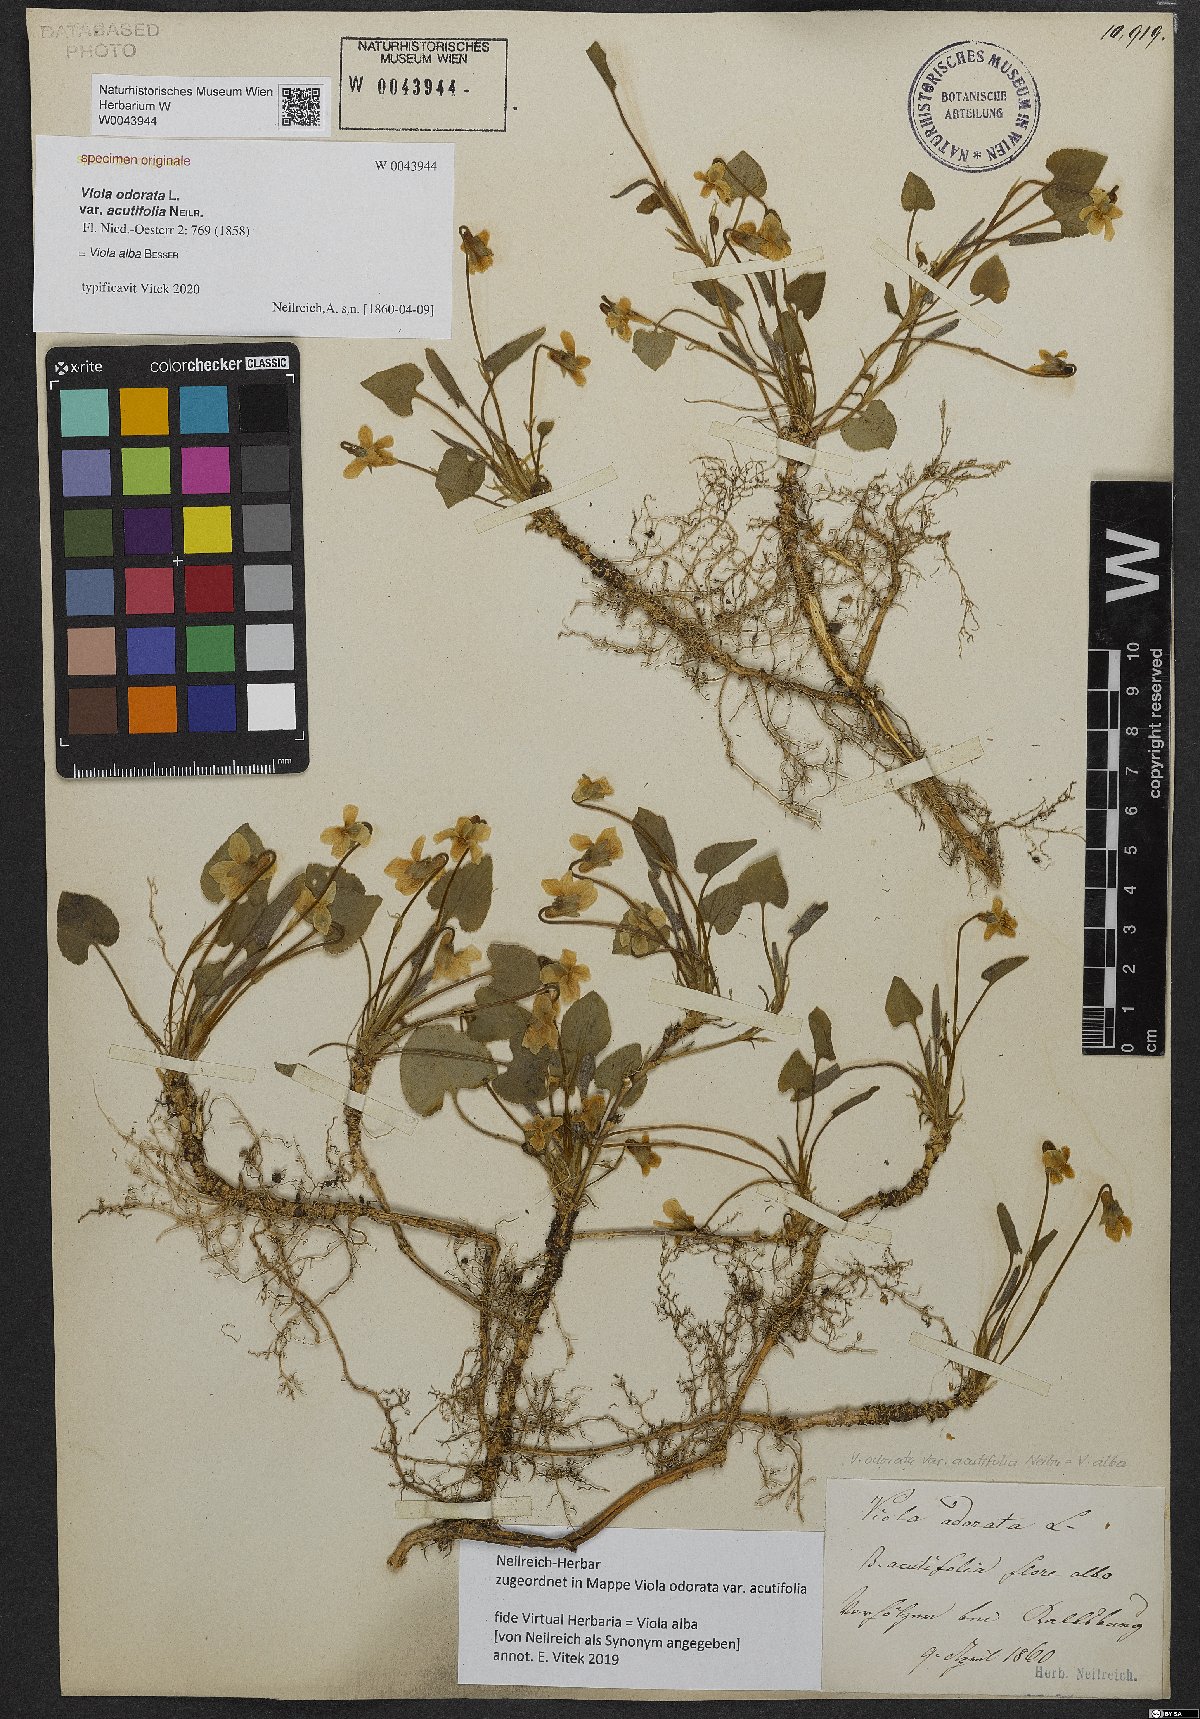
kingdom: Plantae
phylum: Tracheophyta
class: Magnoliopsida
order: Malpighiales
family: Violaceae
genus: Viola
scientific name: Viola odorata
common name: Sweet violet
